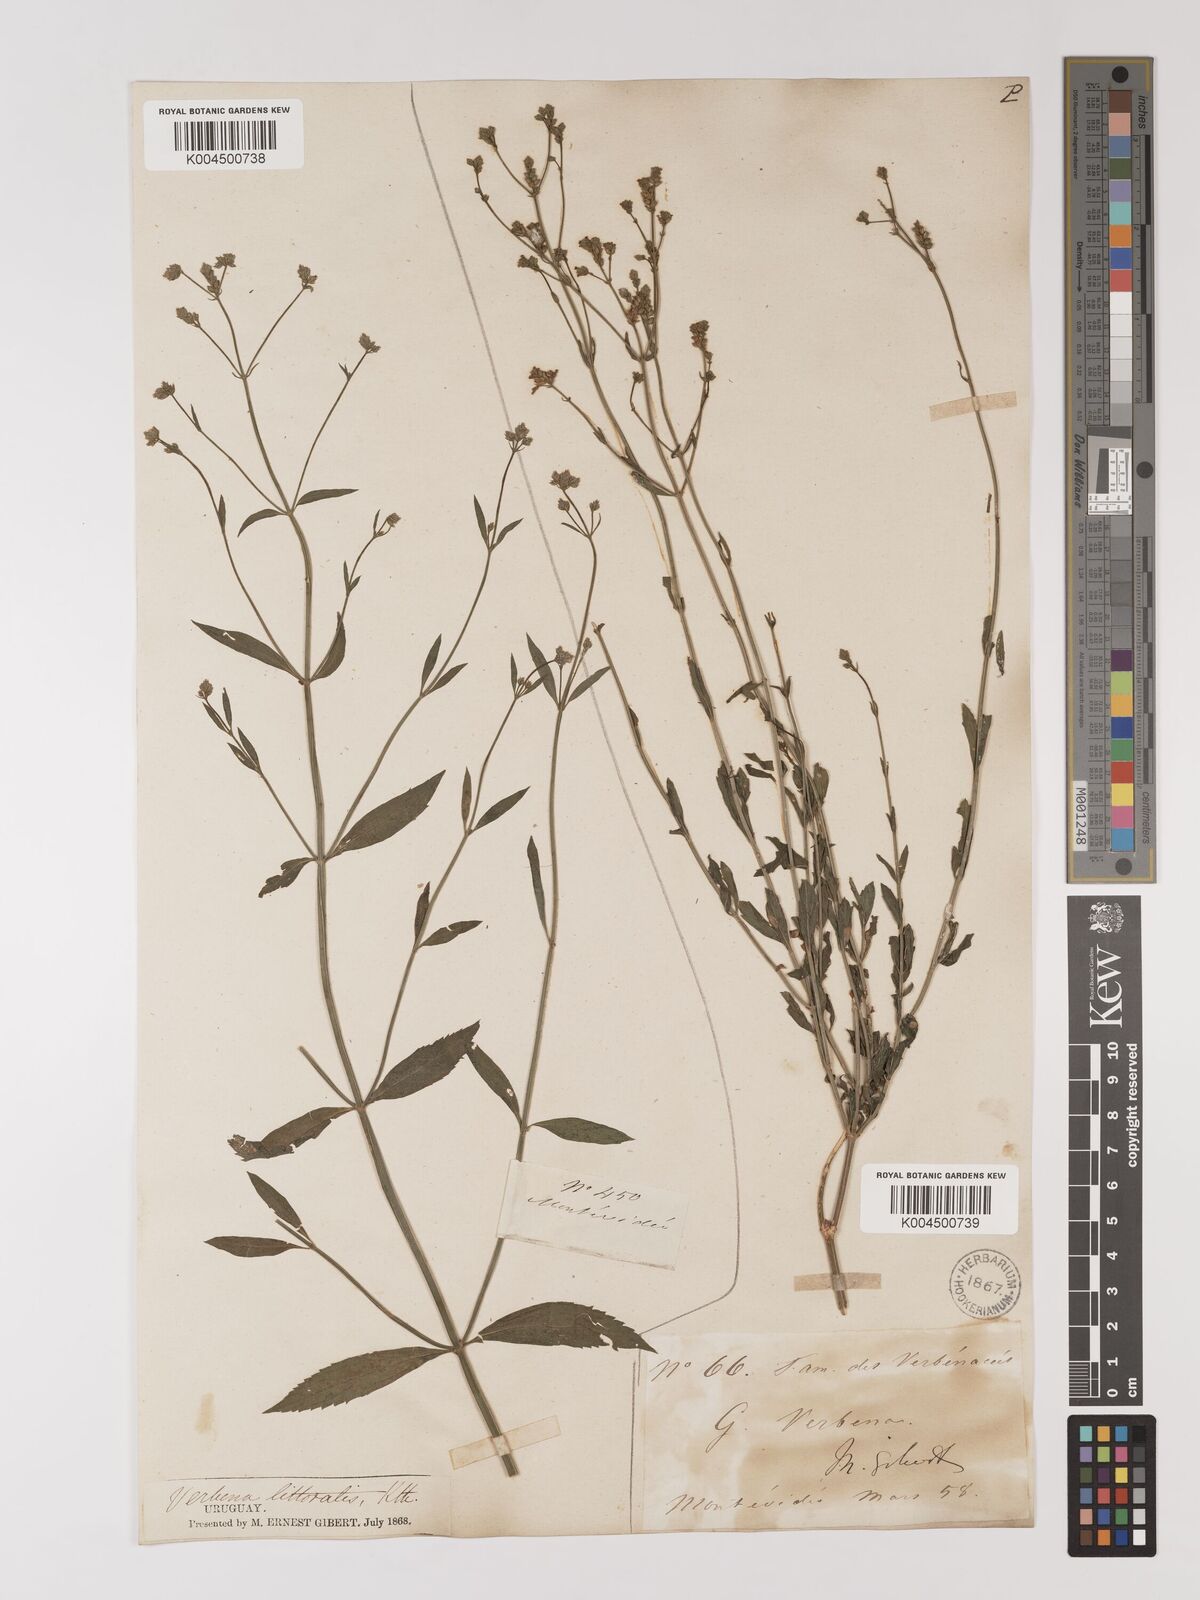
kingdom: Plantae
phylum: Tracheophyta
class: Magnoliopsida
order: Lamiales
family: Verbenaceae
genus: Verbena
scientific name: Verbena litoralis
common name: Seashore vervain
